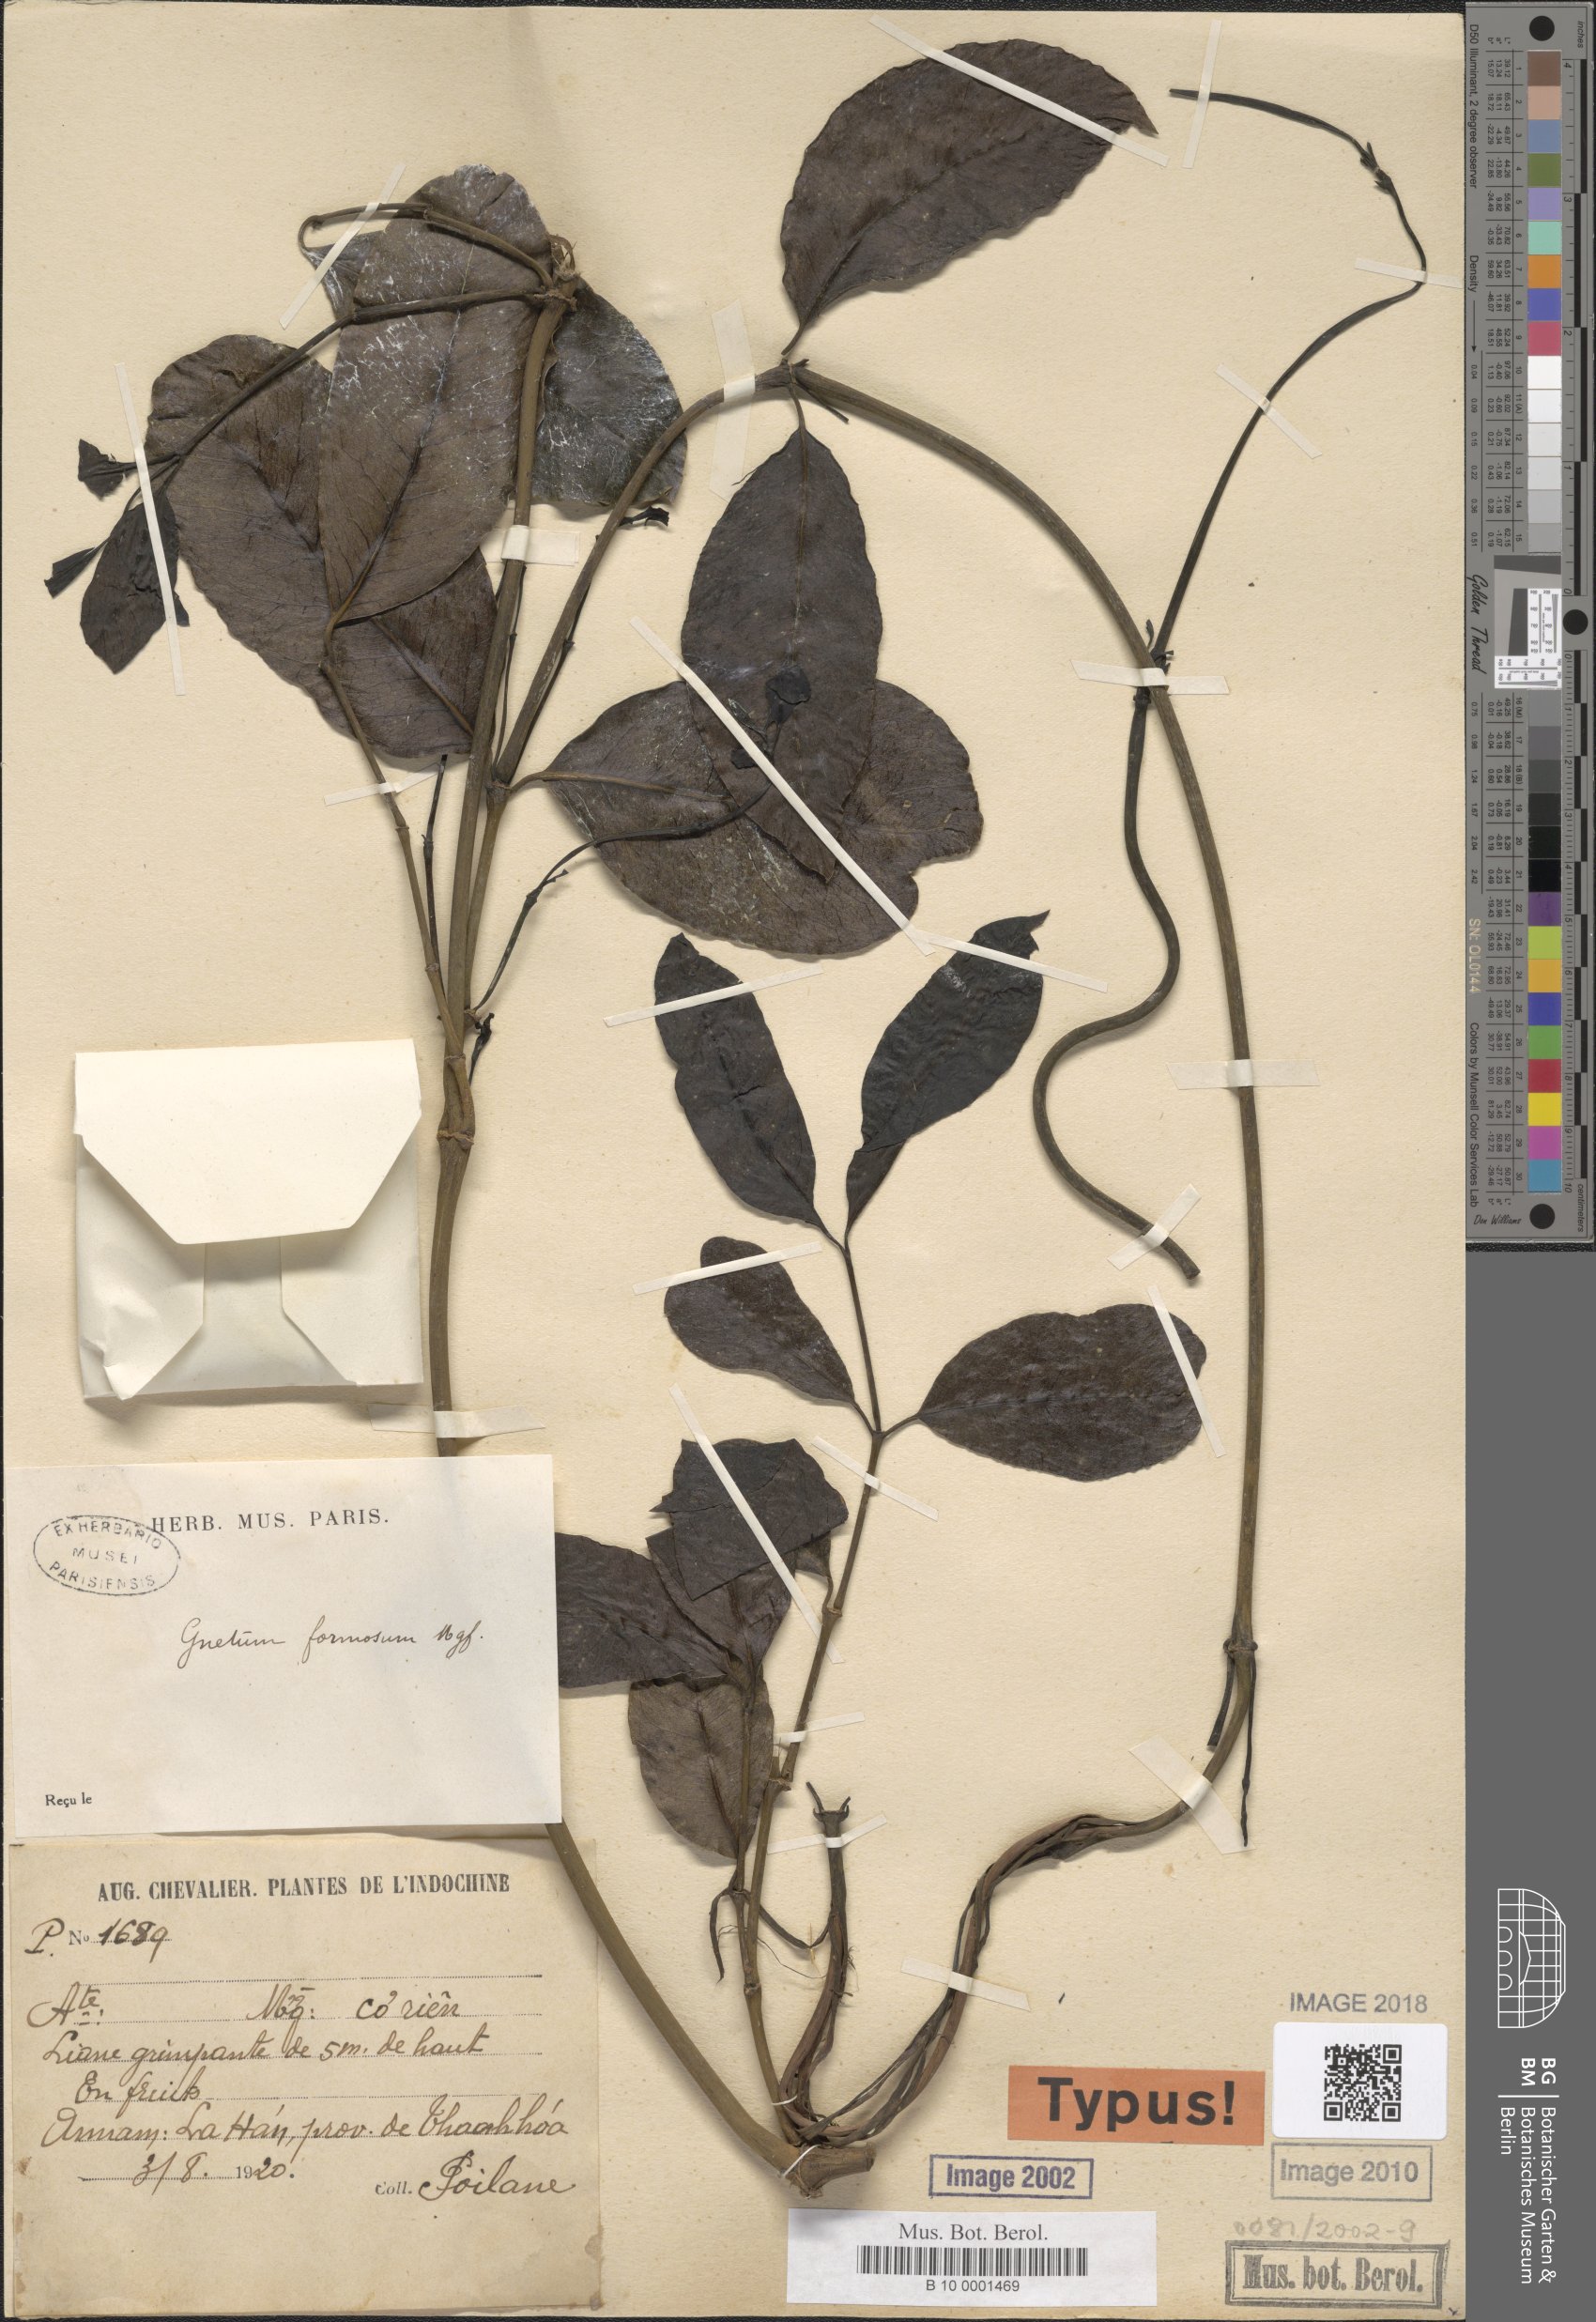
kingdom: Plantae
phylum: Tracheophyta
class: Gnetopsida
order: Gnetales
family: Gnetaceae
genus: Gnetum
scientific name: Gnetum formosum
